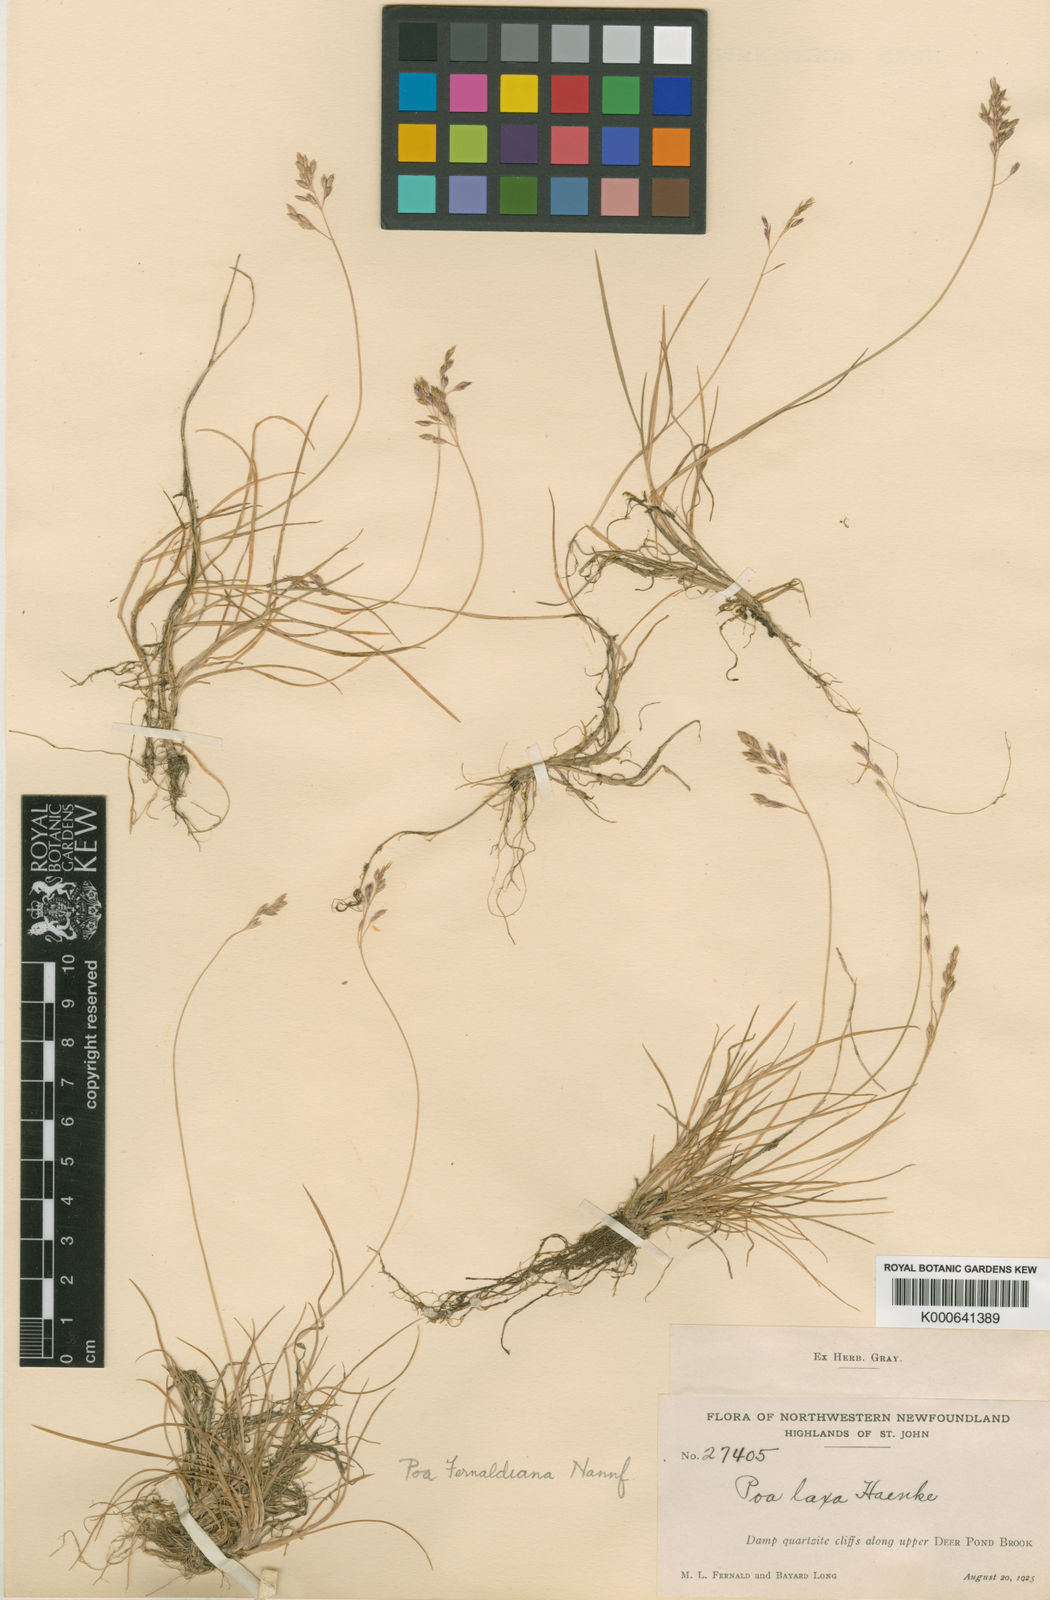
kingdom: Plantae
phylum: Tracheophyta
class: Liliopsida
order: Poales
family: Poaceae
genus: Poa
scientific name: Poa flexuosa
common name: Wavy meadow-grass
